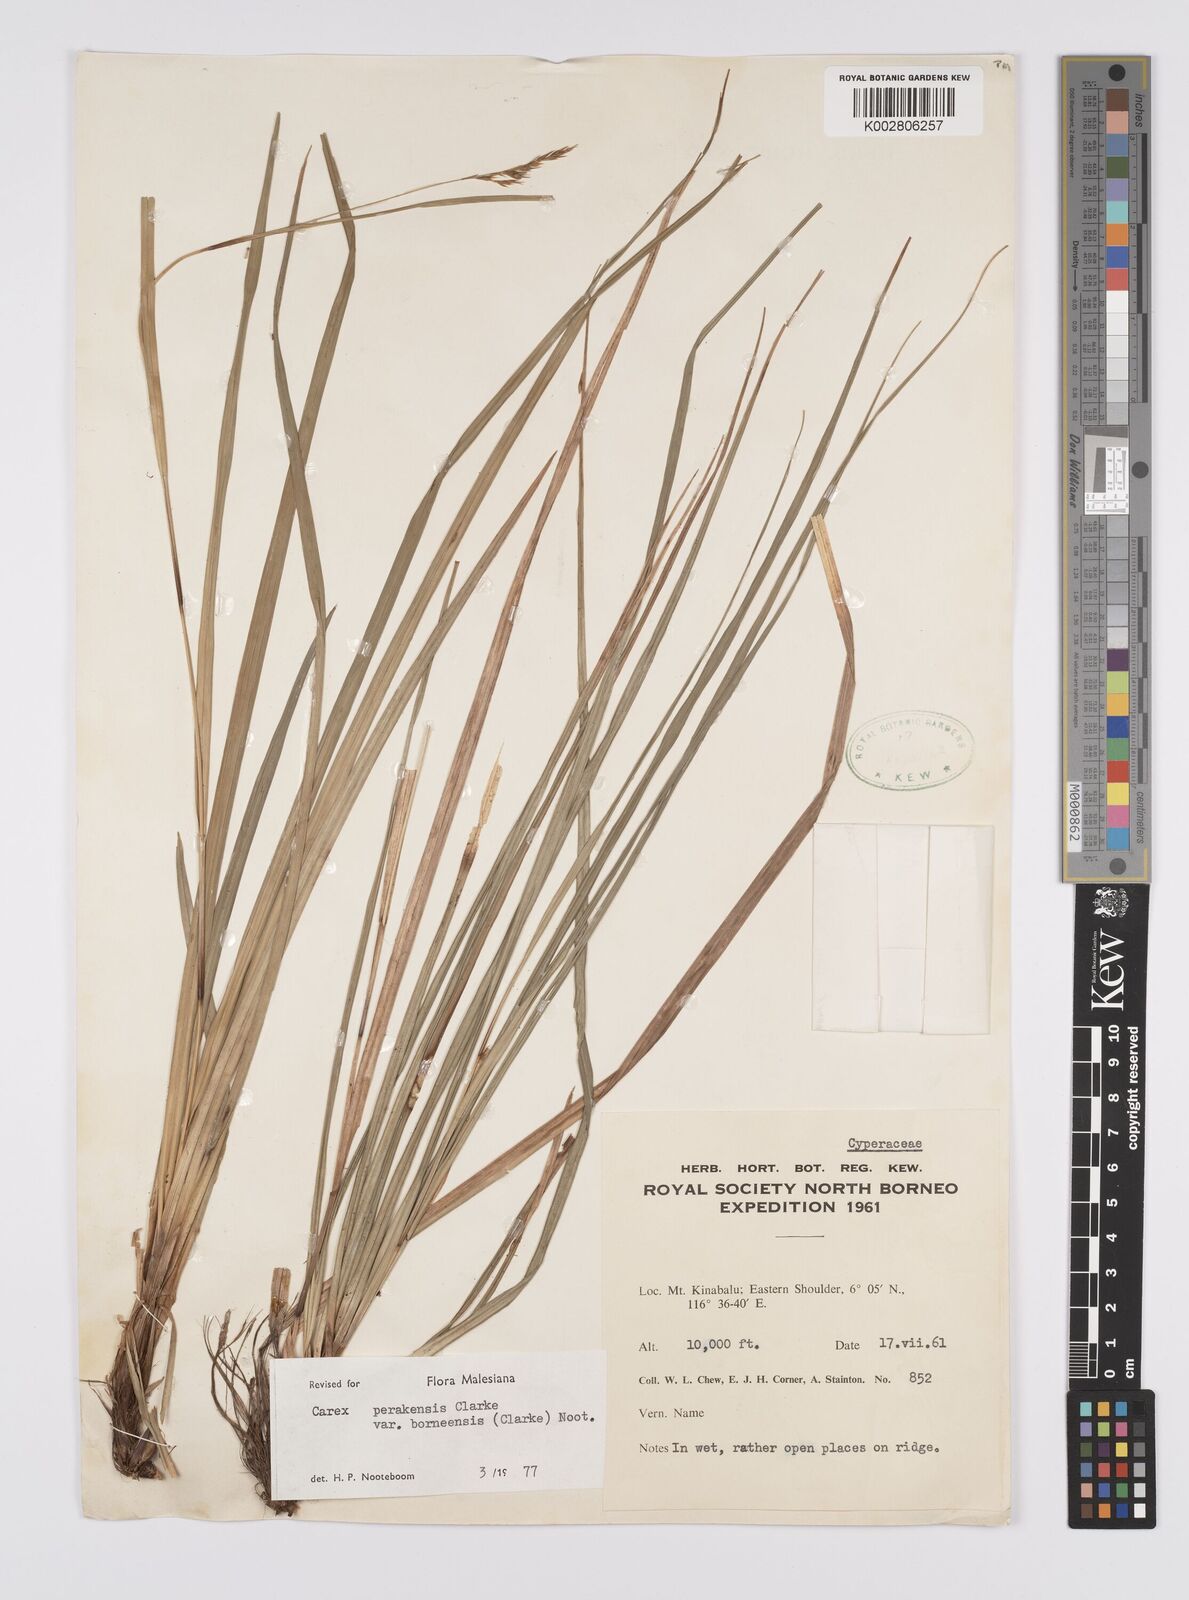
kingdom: Plantae
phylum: Tracheophyta
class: Liliopsida
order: Poales
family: Cyperaceae
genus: Carex
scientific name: Carex perakensis
